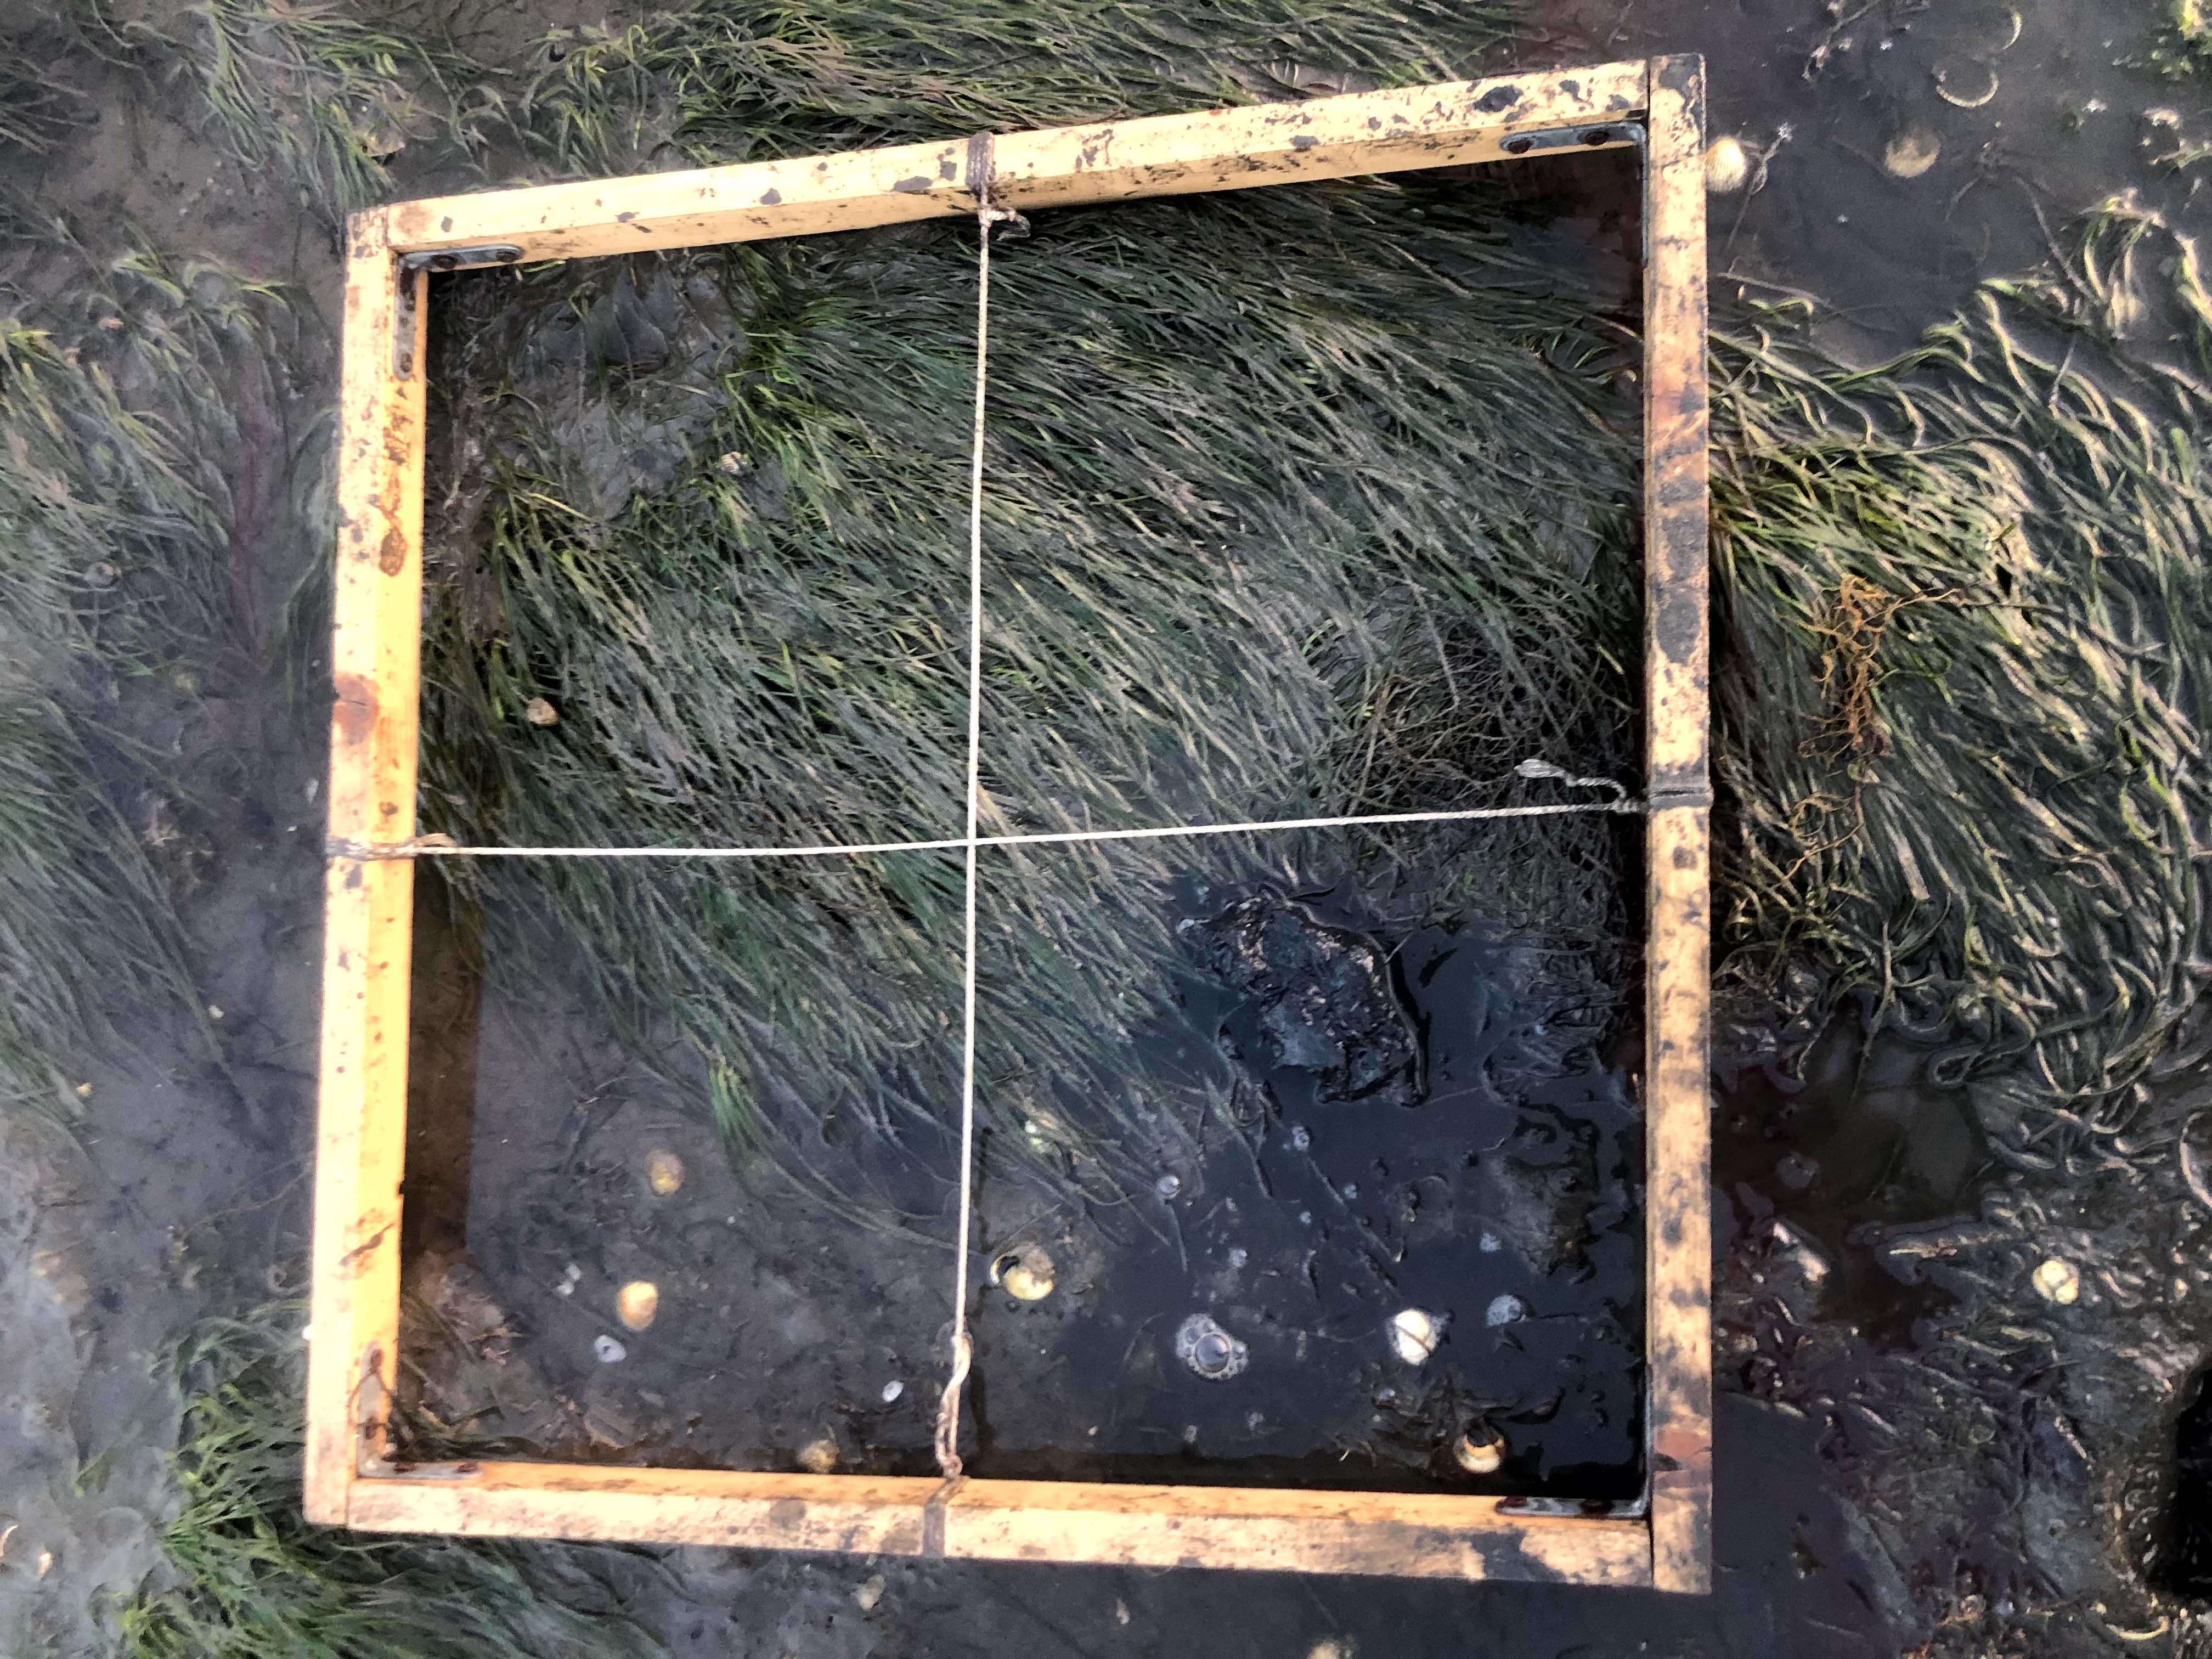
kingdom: Plantae
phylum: Tracheophyta
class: Liliopsida
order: Alismatales
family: Zosteraceae
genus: Zostera
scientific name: Zostera noltii
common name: Dwarf eelgrass
